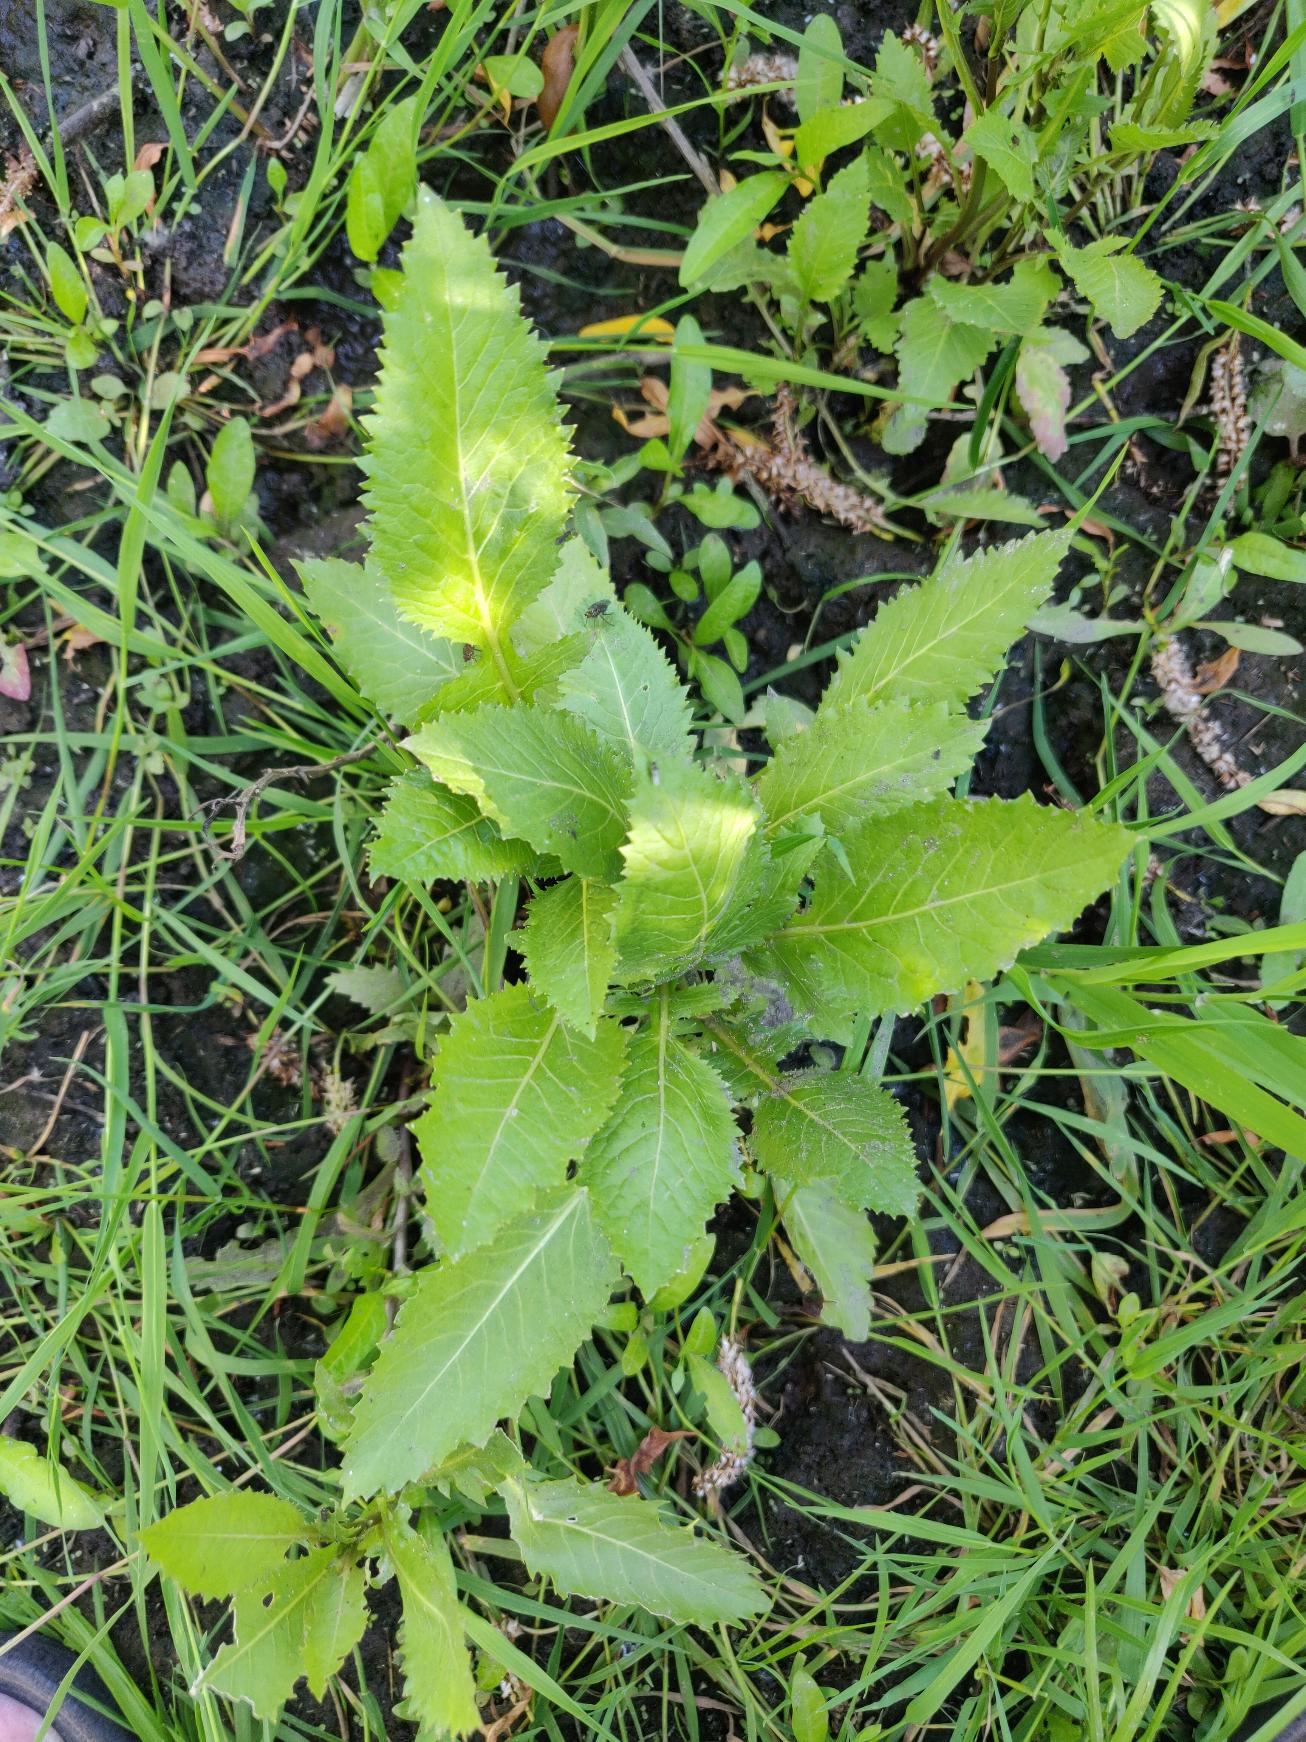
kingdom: Plantae
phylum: Tracheophyta
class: Magnoliopsida
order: Brassicales
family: Brassicaceae
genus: Rorippa
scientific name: Rorippa amphibia
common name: Vandpeberrod
